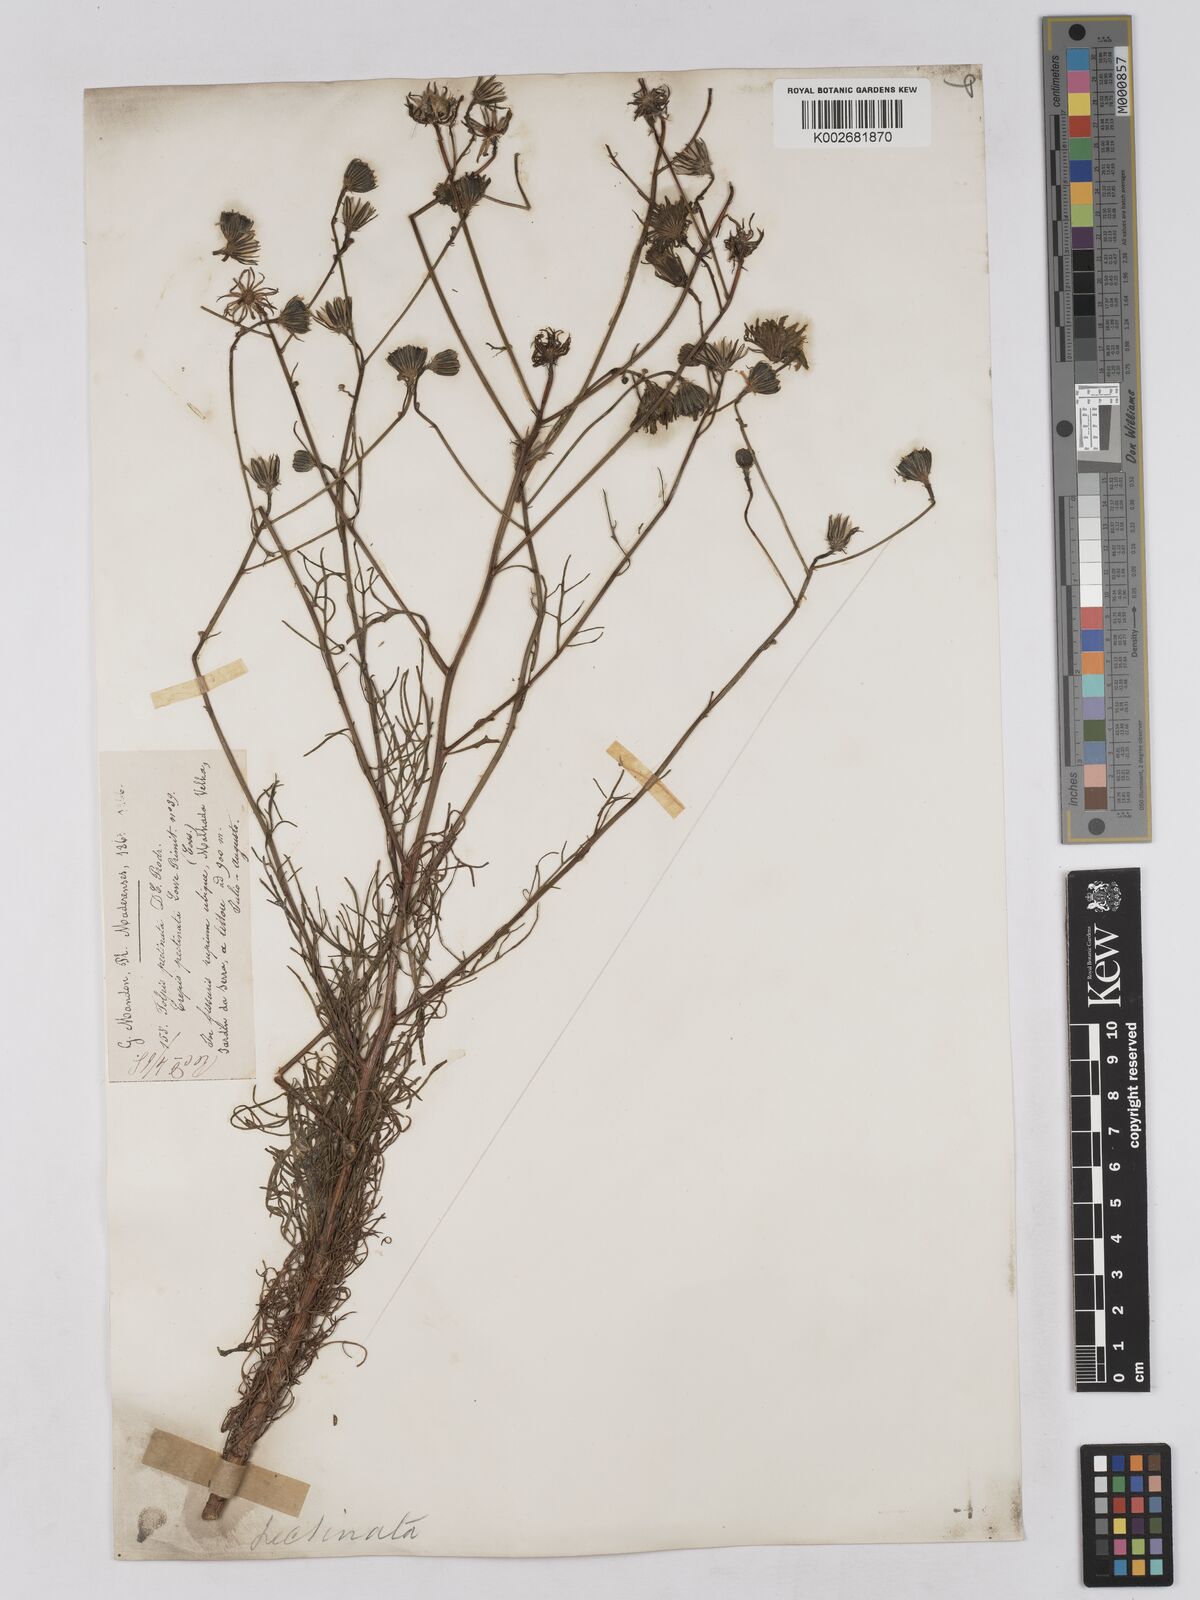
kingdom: Plantae
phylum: Tracheophyta
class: Magnoliopsida
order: Asterales
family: Asteraceae
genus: Tolpis
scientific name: Tolpis succulenta
